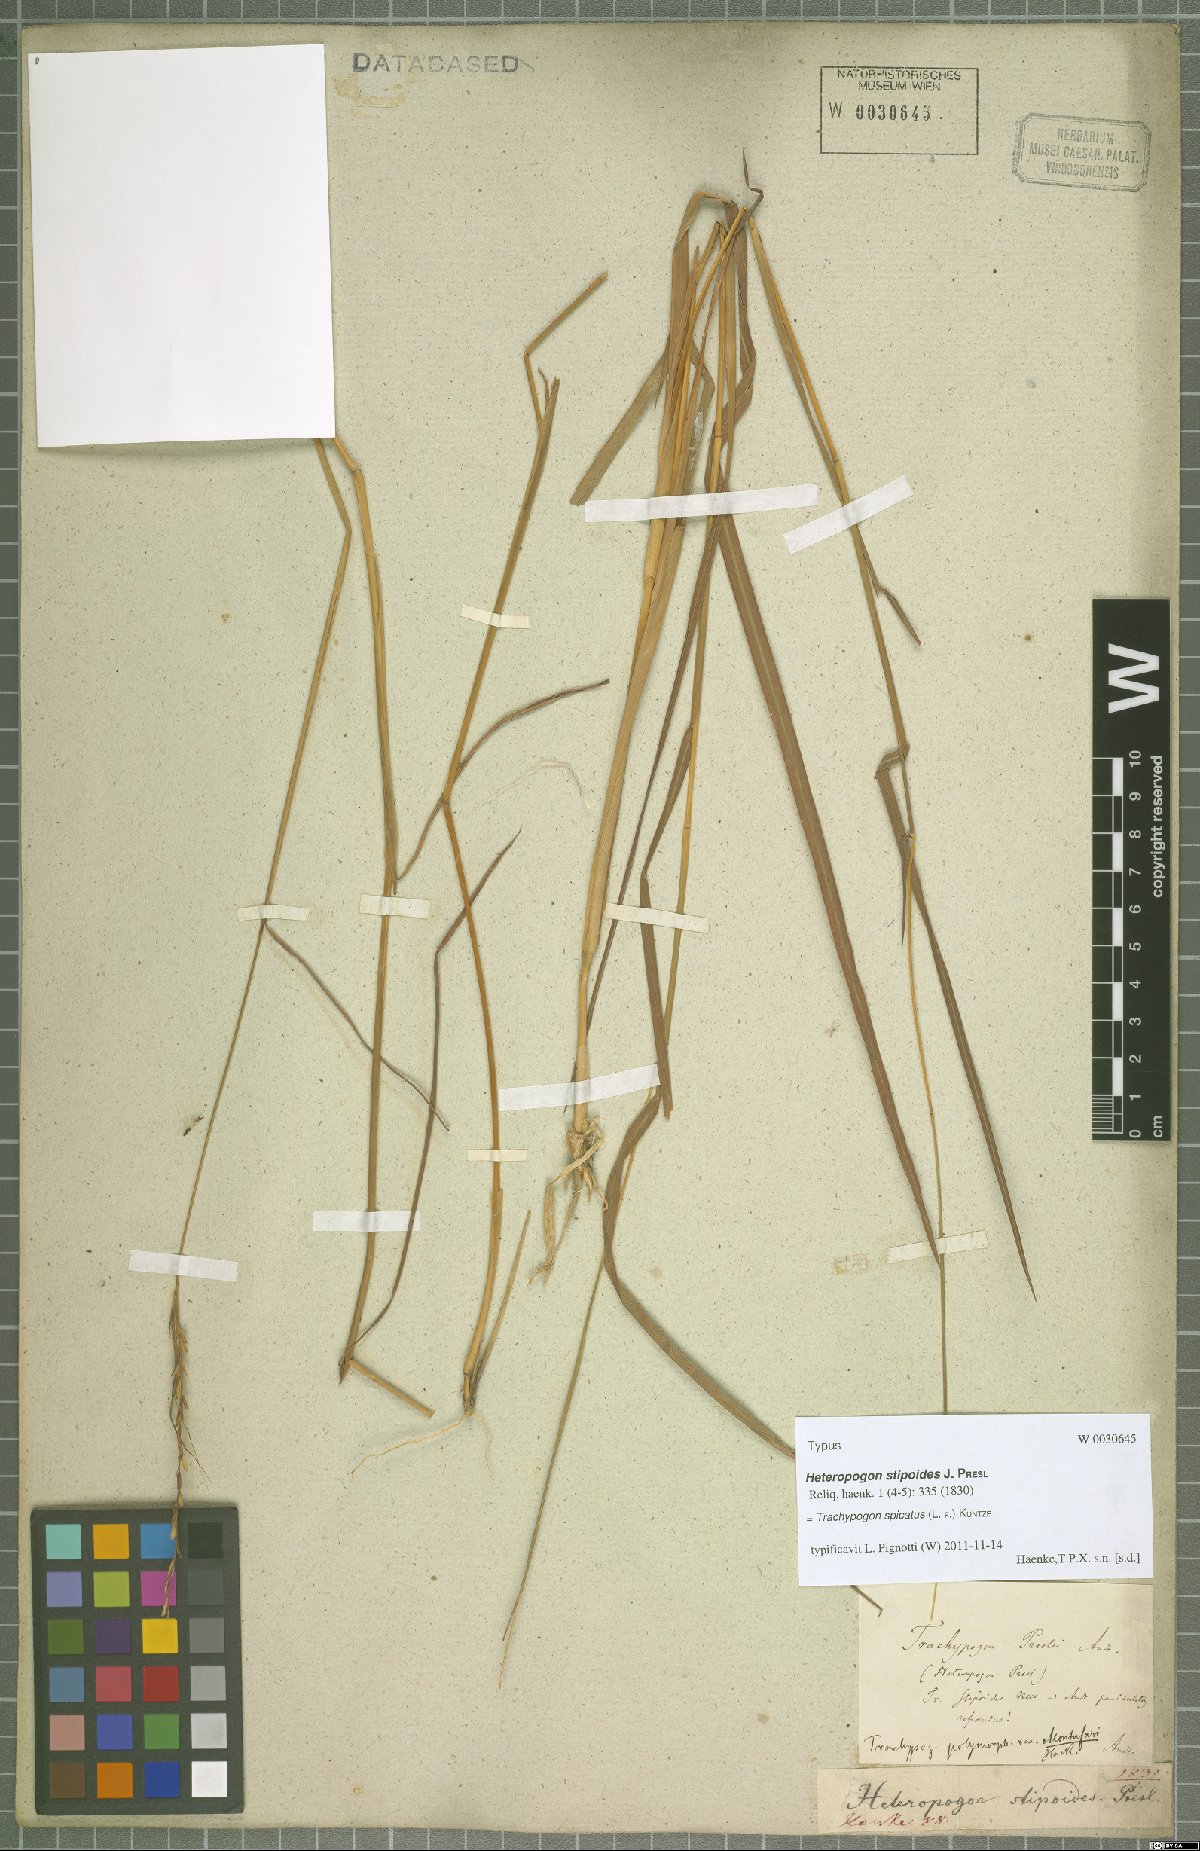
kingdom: Plantae
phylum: Tracheophyta
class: Liliopsida
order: Poales
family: Poaceae
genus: Trachypogon
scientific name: Trachypogon spicatus
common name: Crinkle-awn
